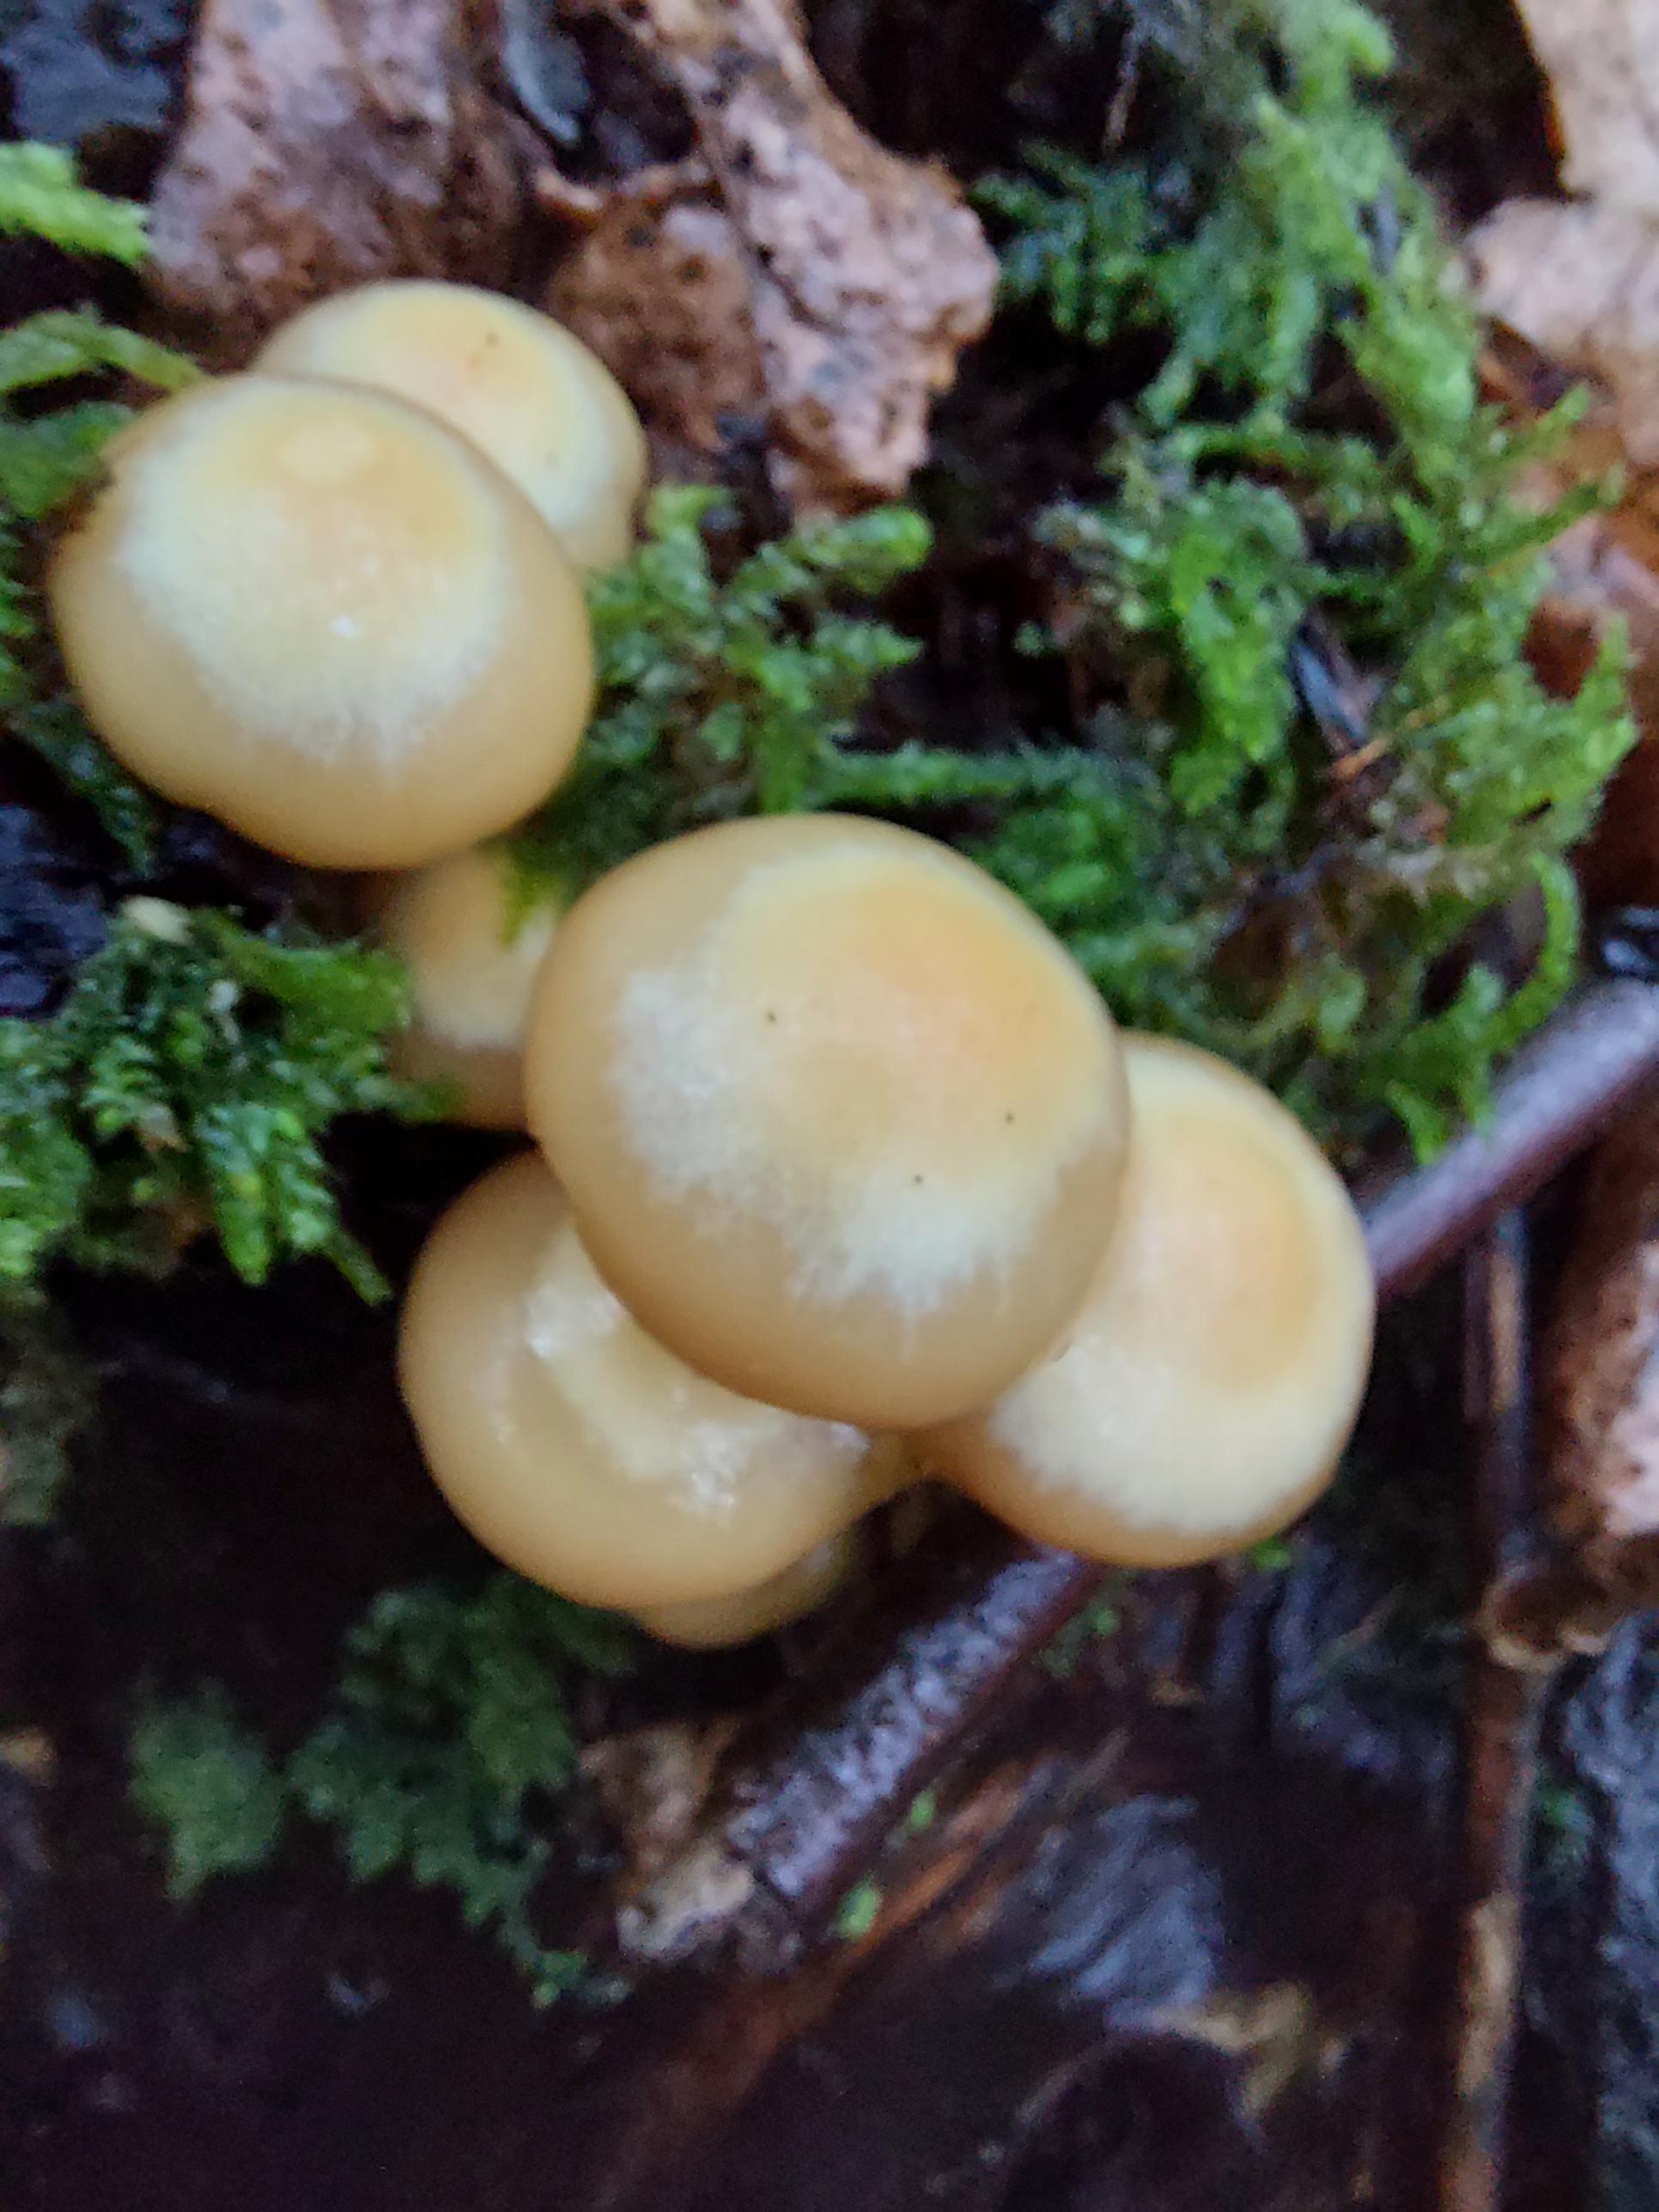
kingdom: Fungi
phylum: Basidiomycota
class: Agaricomycetes
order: Agaricales
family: Strophariaceae
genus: Kuehneromyces
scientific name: Kuehneromyces mutabilis
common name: foranderlig skælhat
